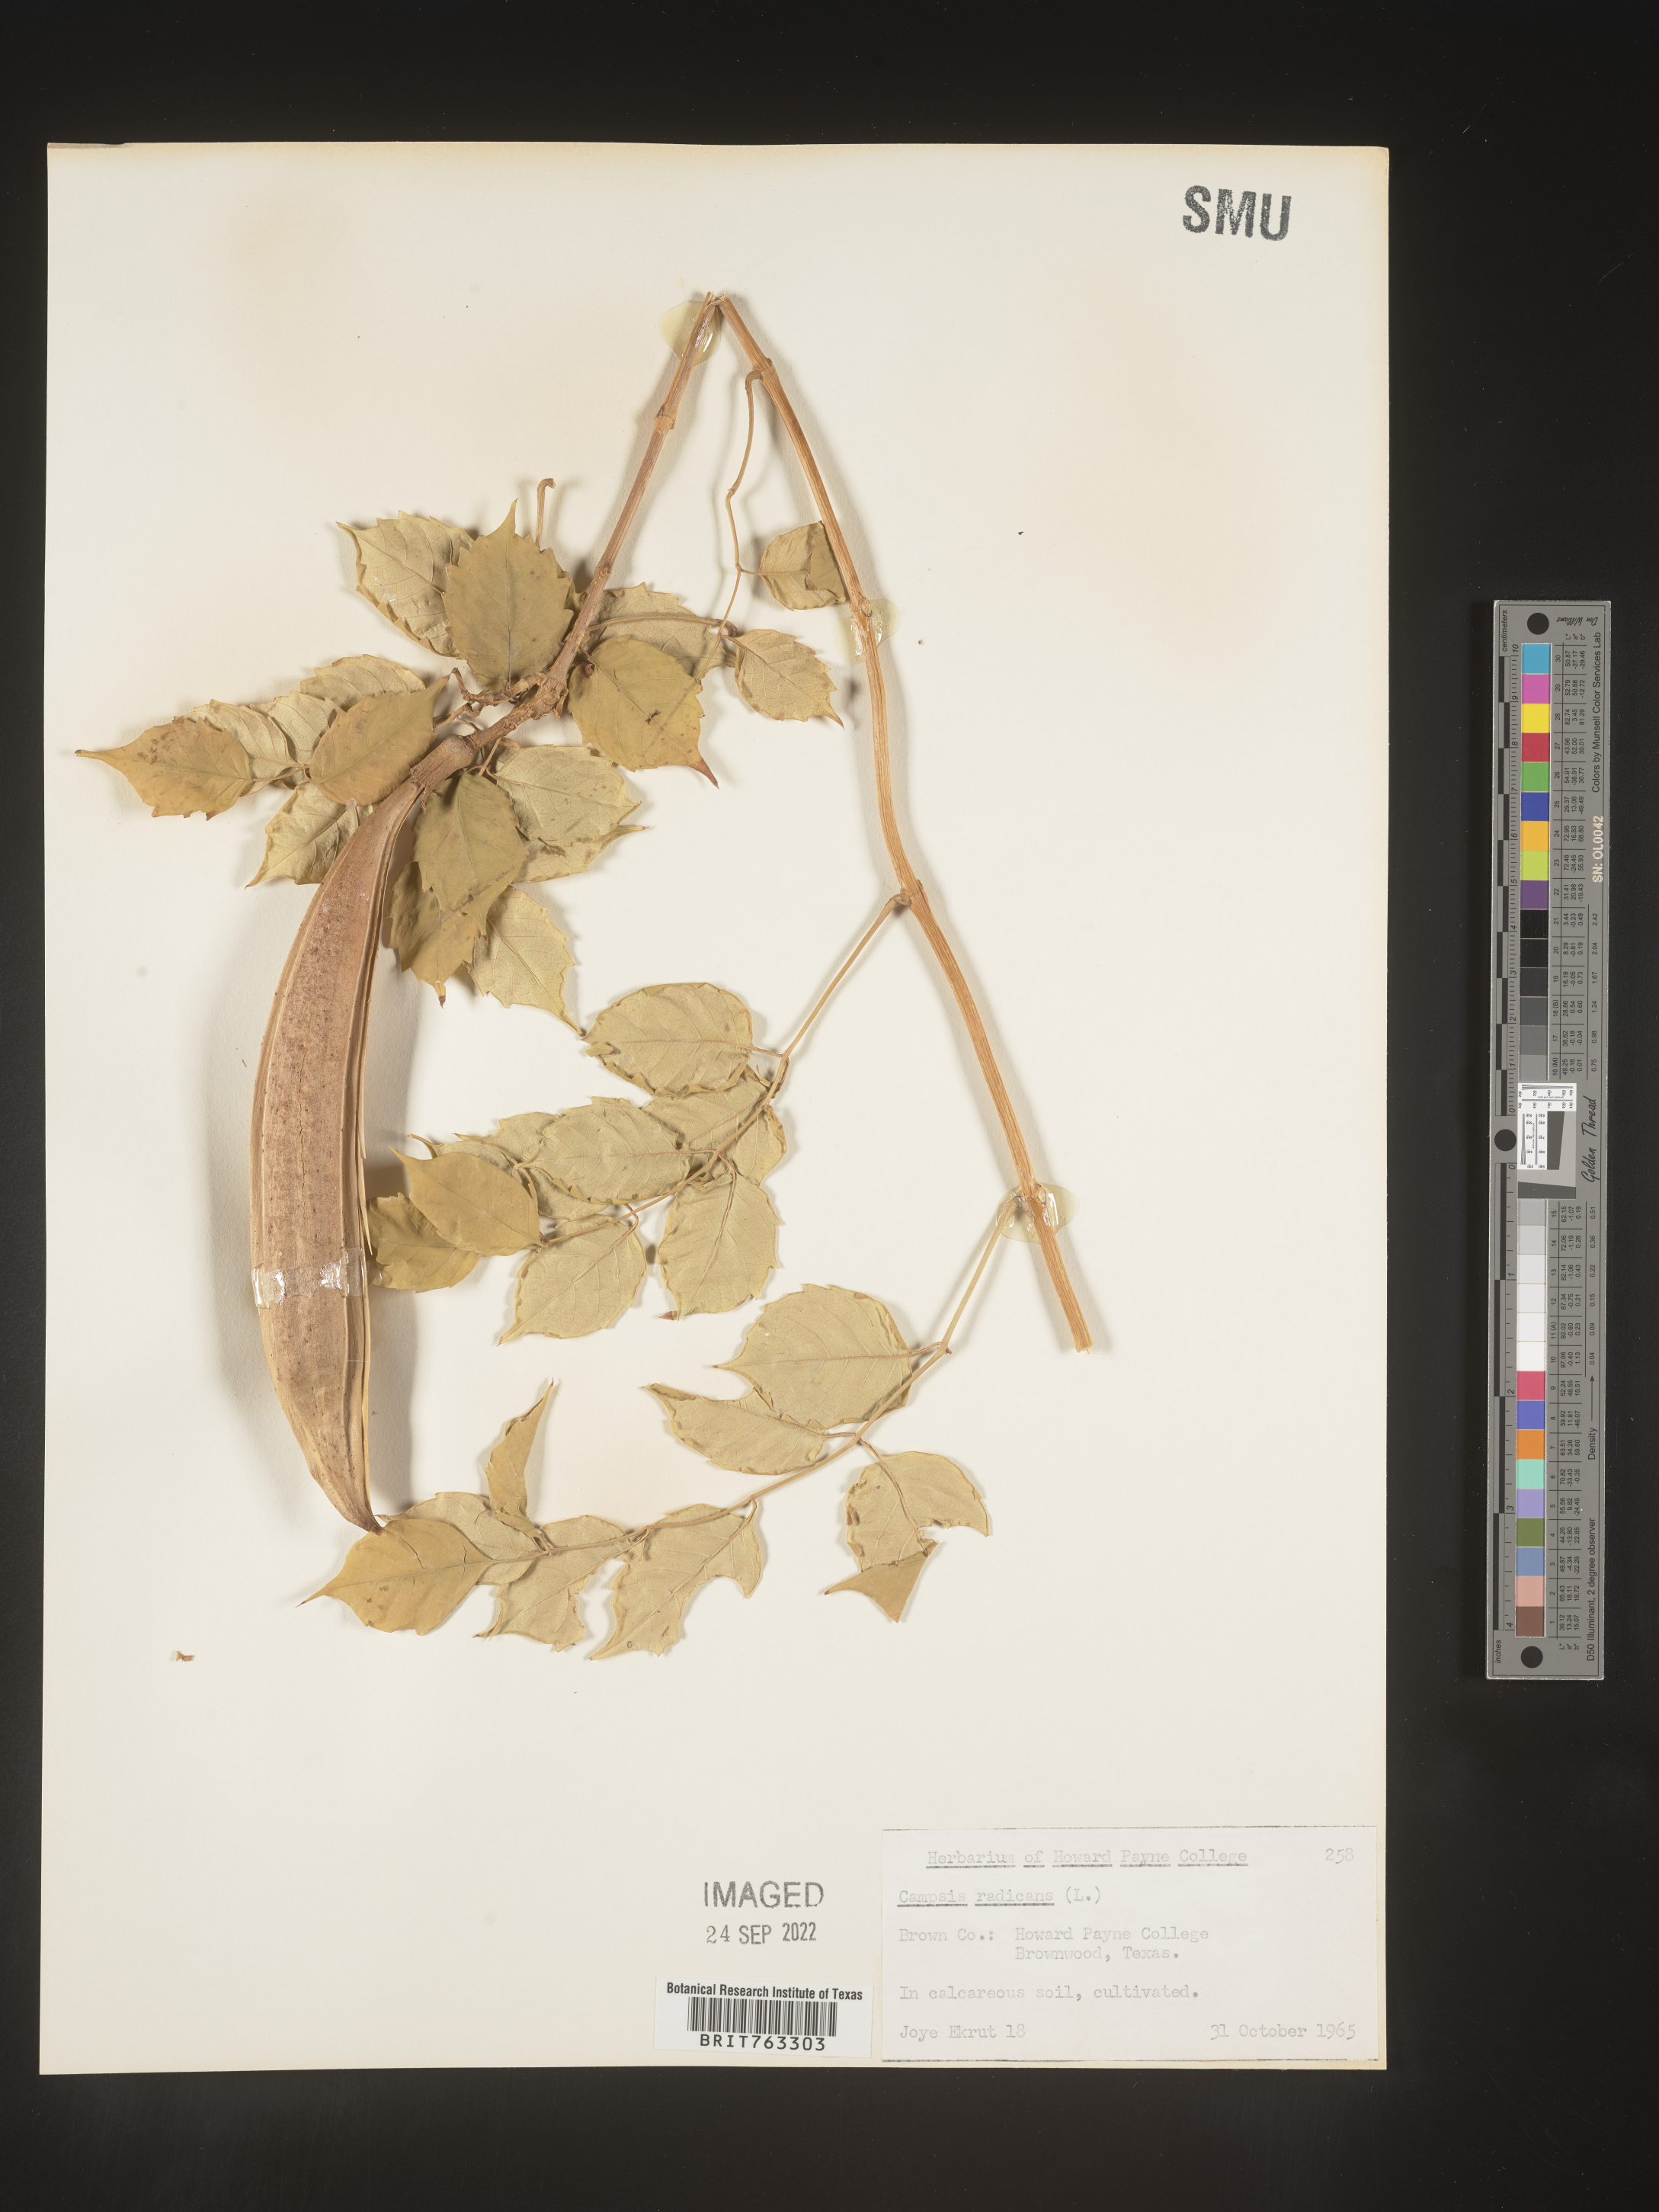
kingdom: Plantae
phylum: Tracheophyta
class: Magnoliopsida
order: Lamiales
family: Bignoniaceae
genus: Campsis
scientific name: Campsis
